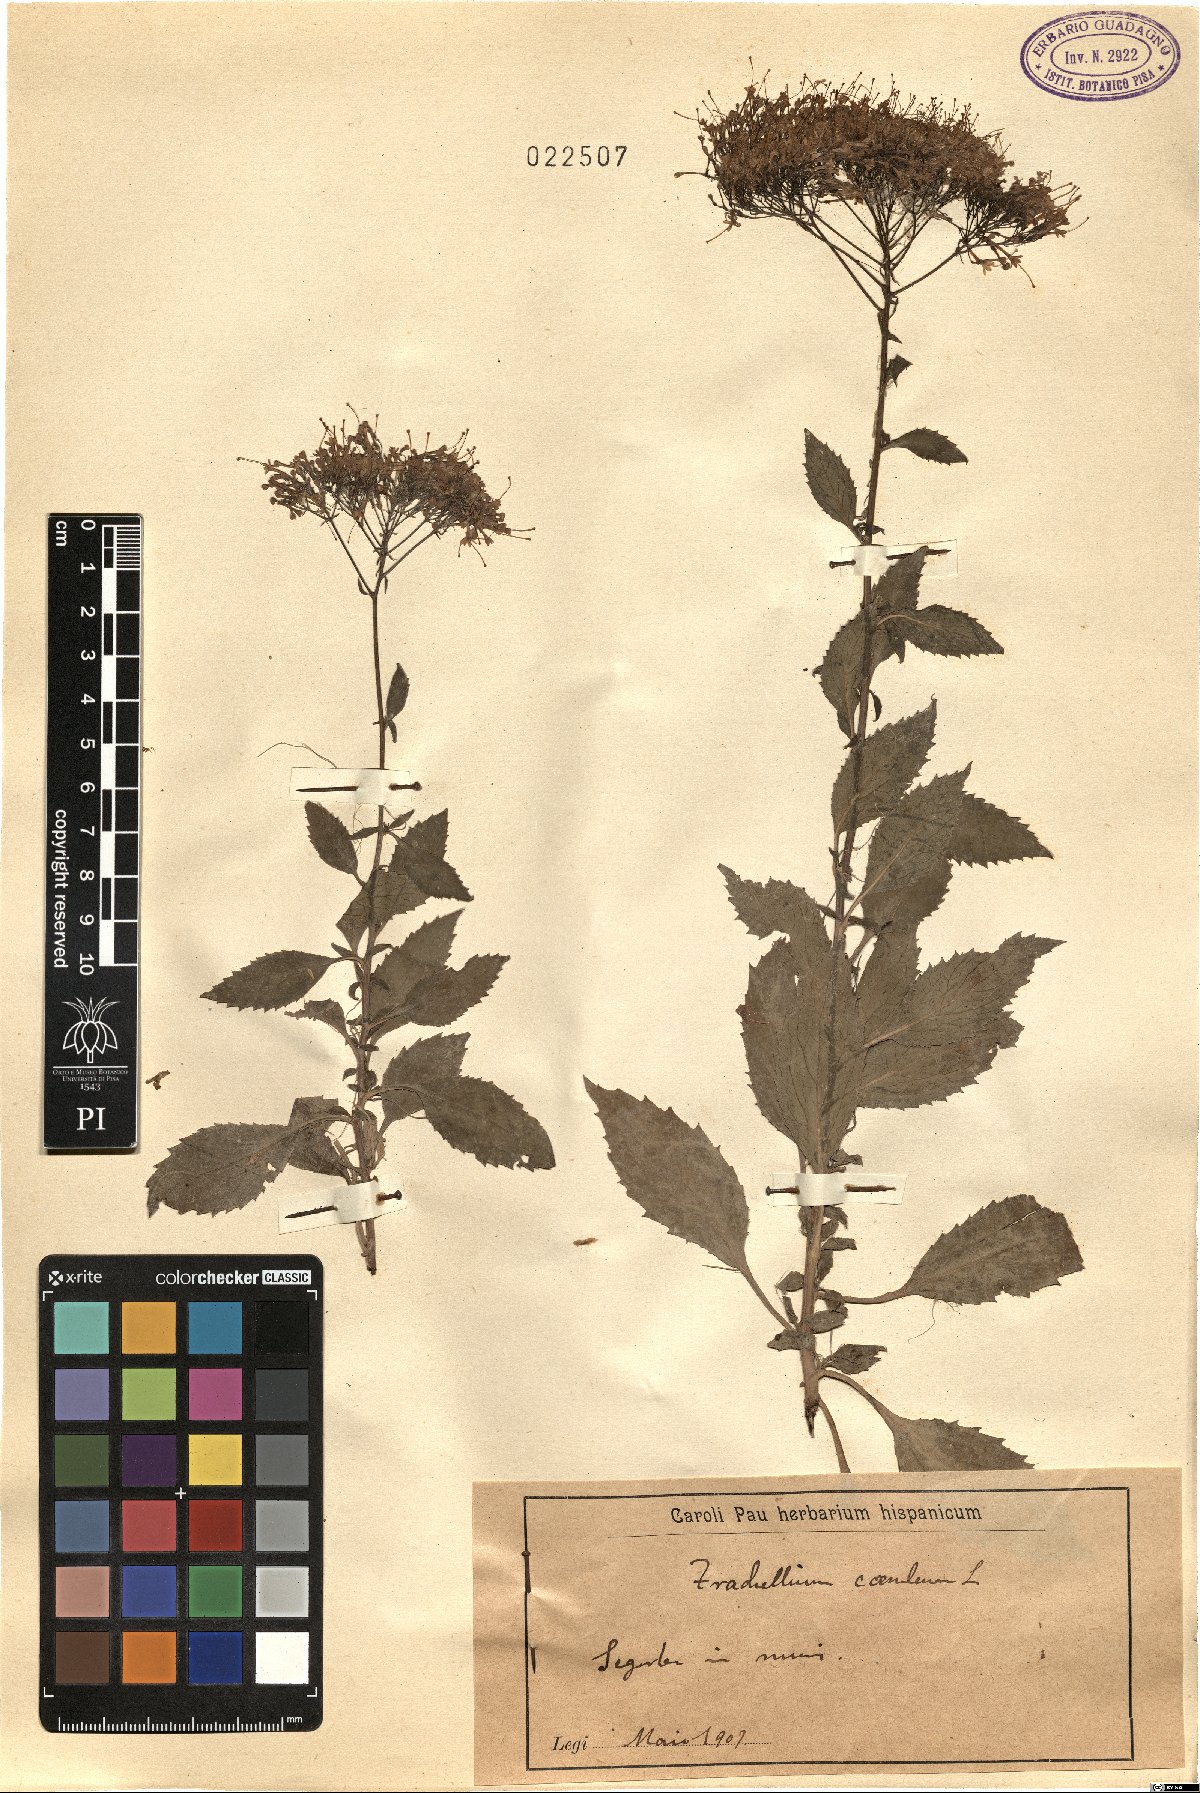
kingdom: Plantae
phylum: Tracheophyta
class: Magnoliopsida
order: Asterales
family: Campanulaceae
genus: Trachelium
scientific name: Trachelium caeruleum
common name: Throatwort
